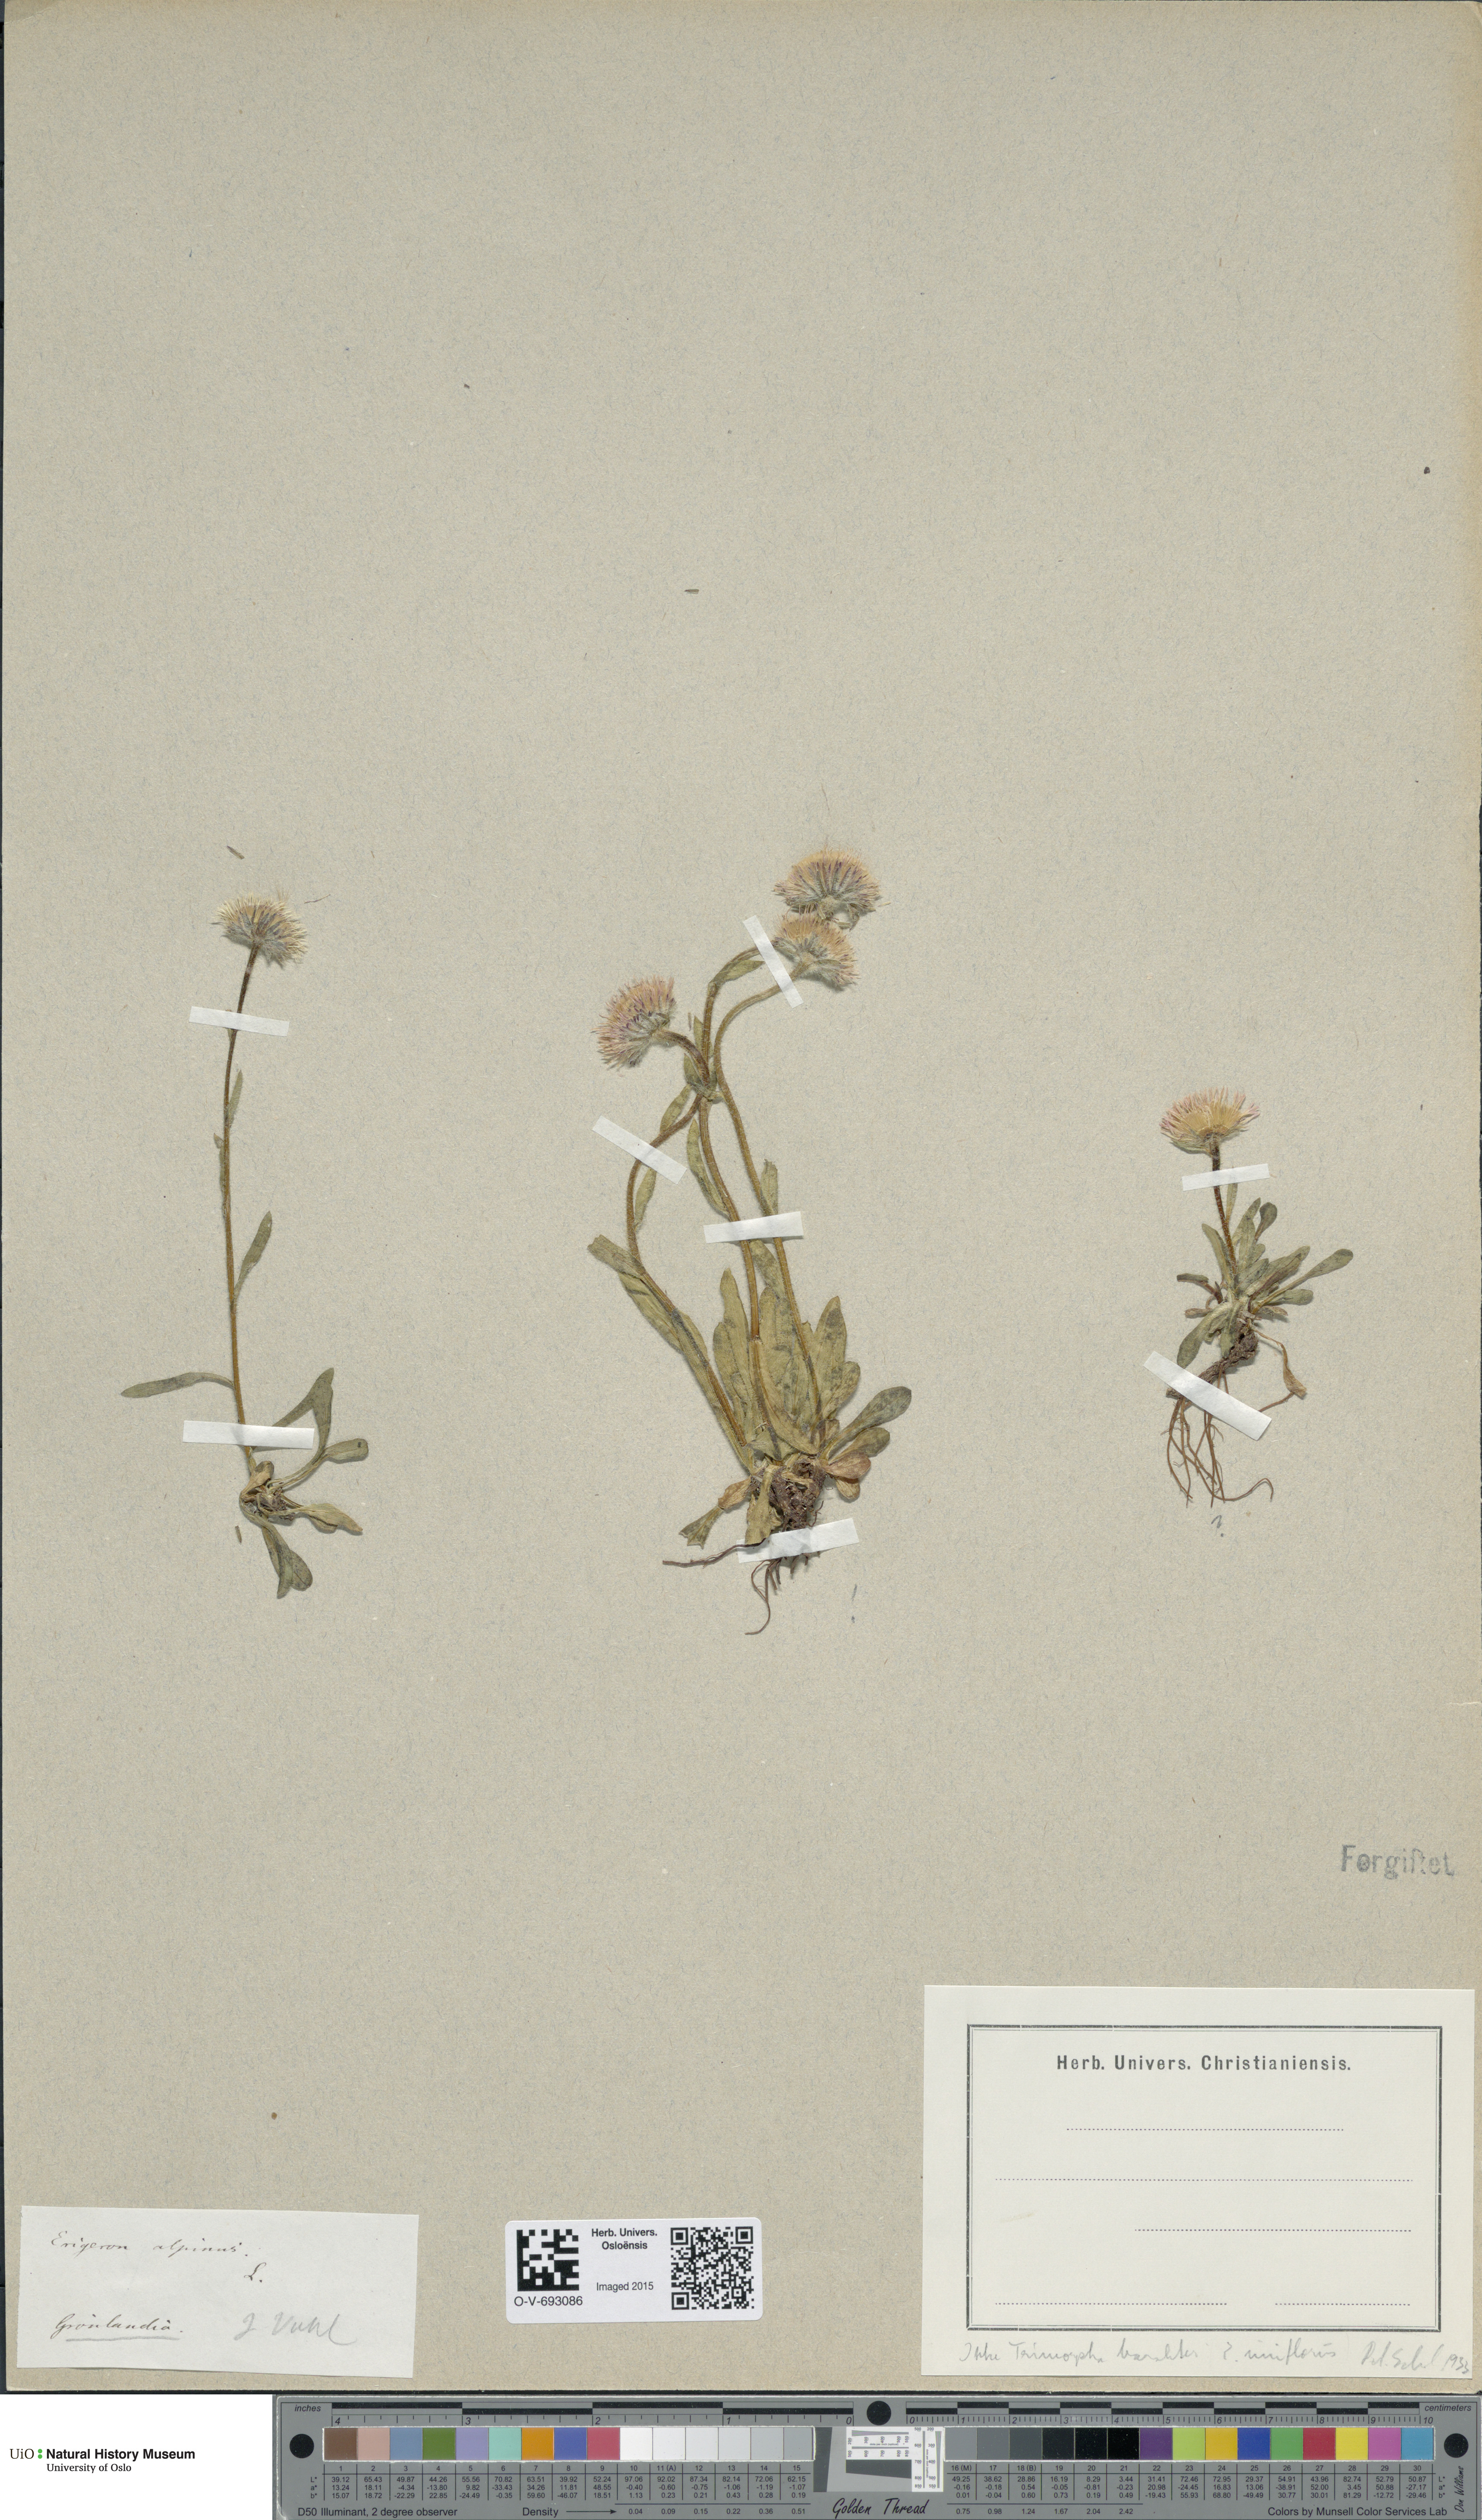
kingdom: Plantae
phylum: Tracheophyta
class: Magnoliopsida
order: Asterales
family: Asteraceae
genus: Erigeron
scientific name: Erigeron alpinus
